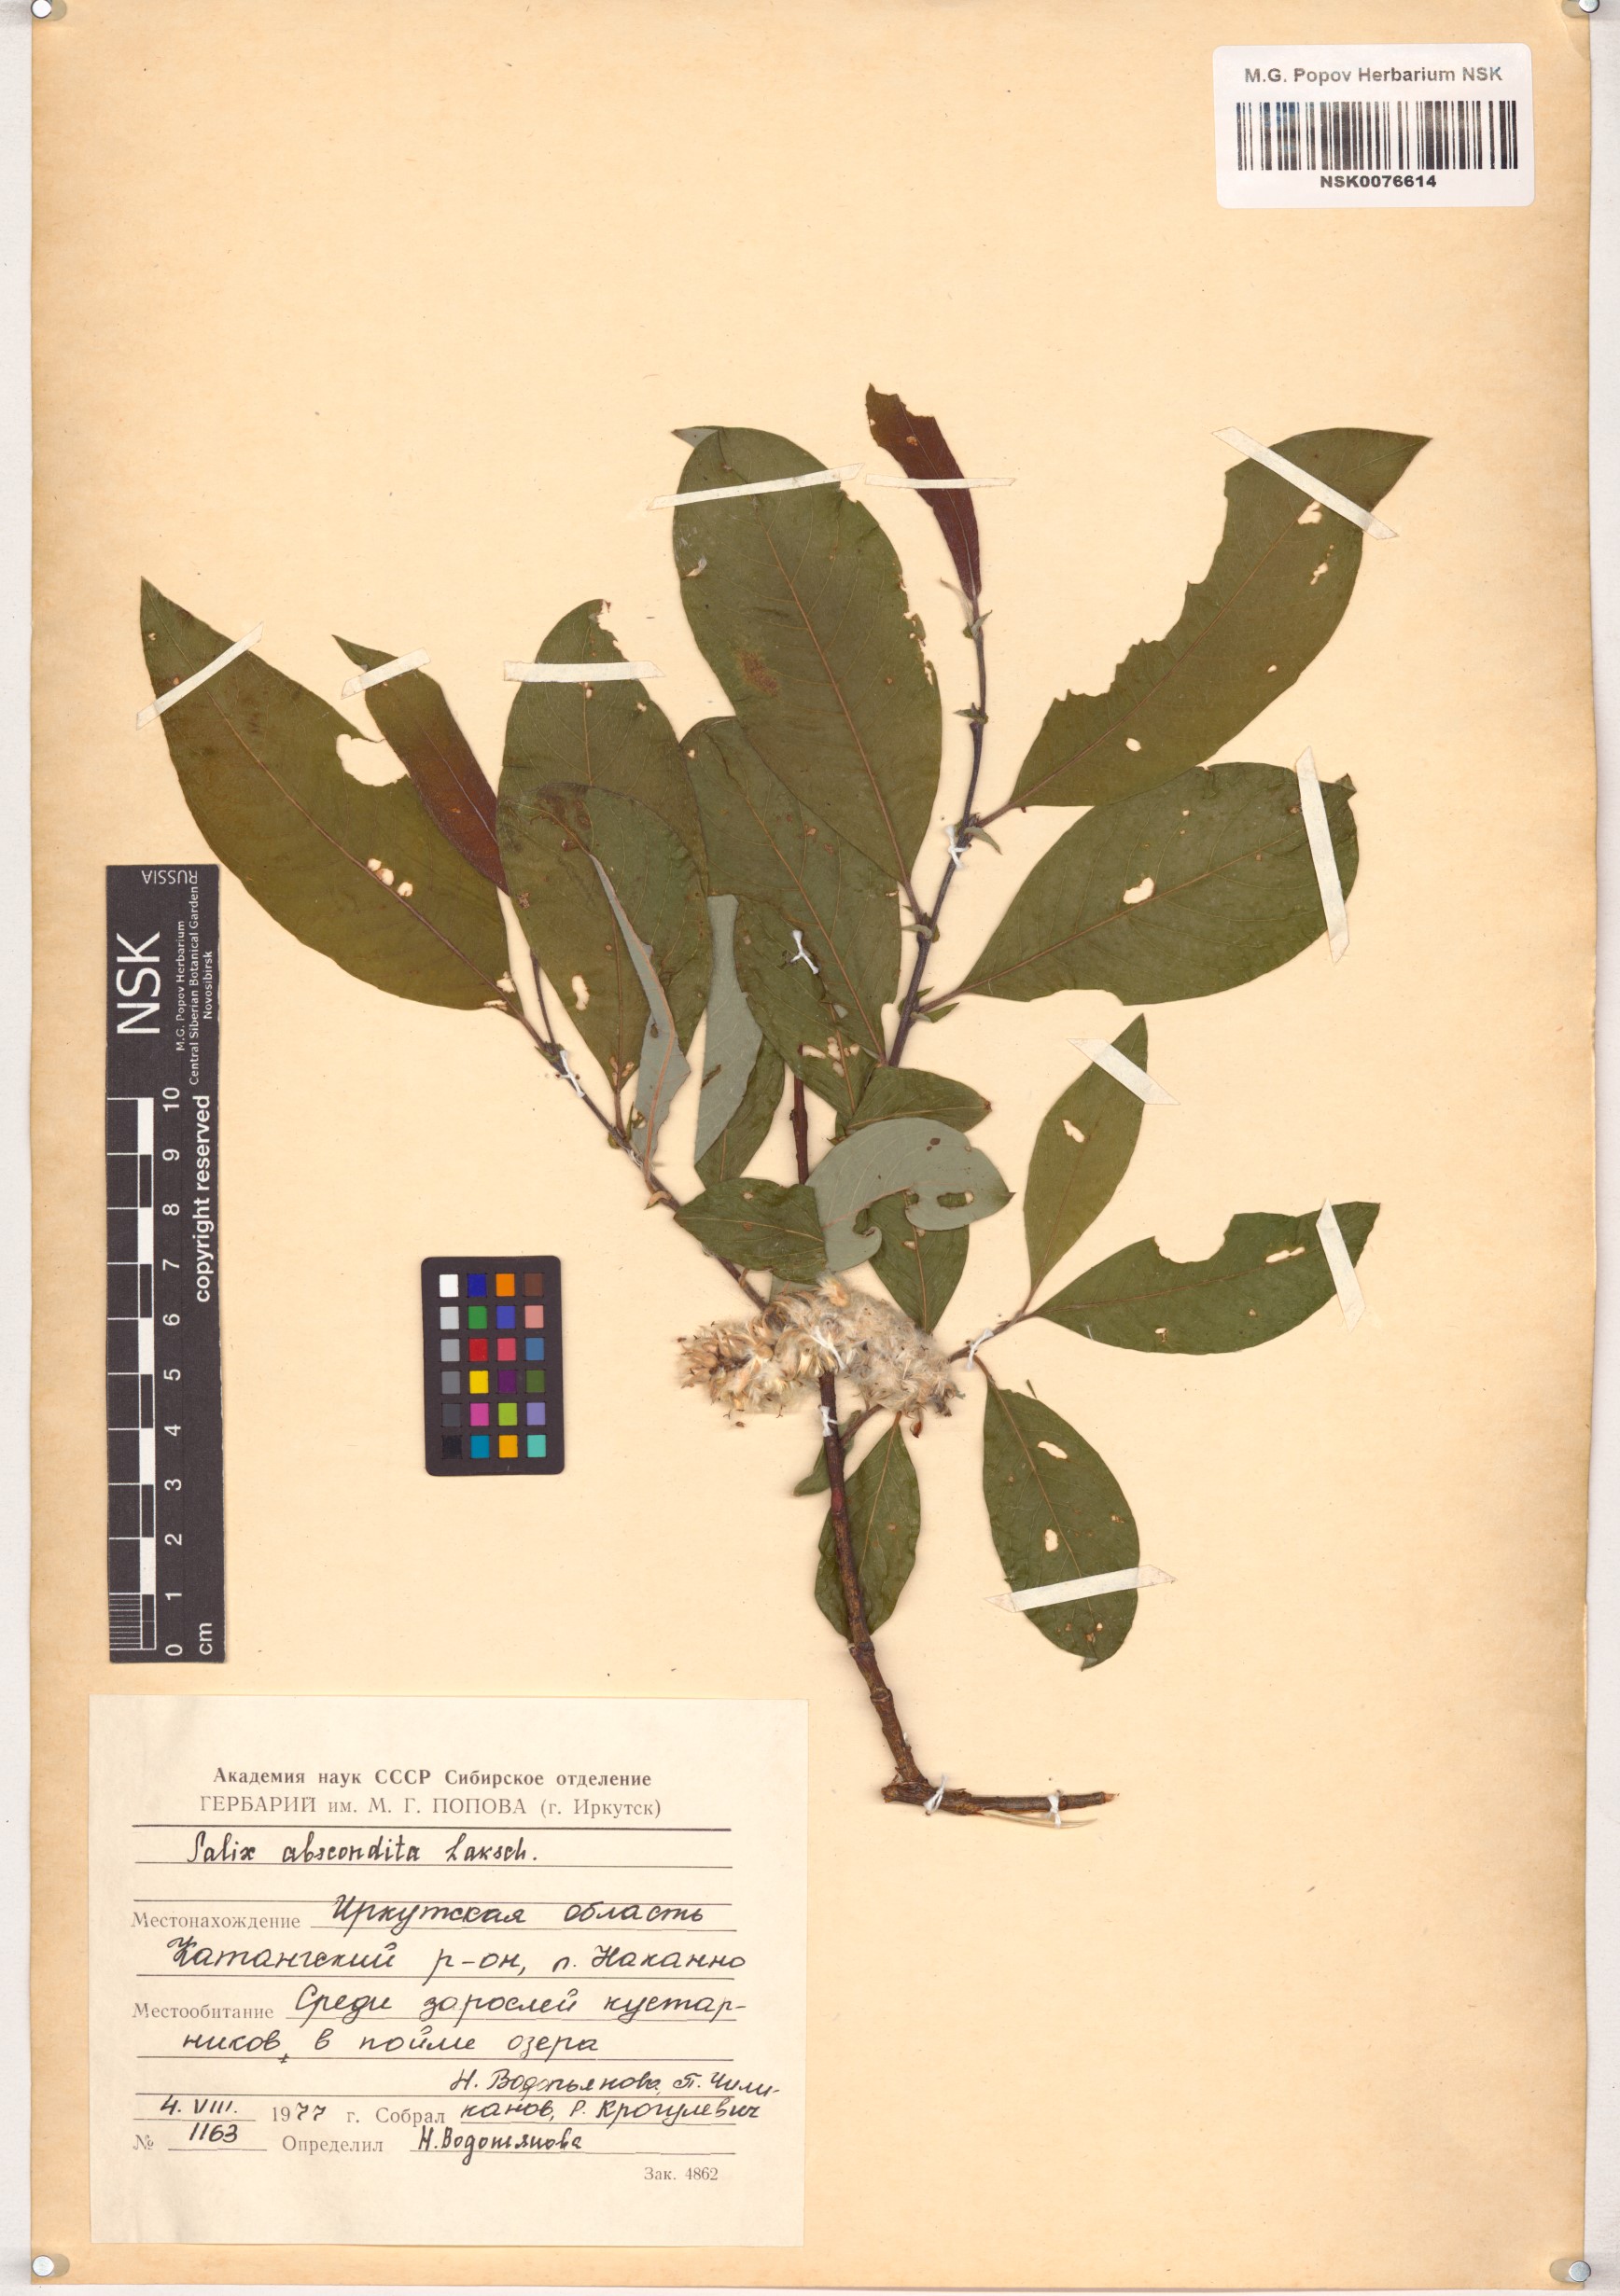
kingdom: Plantae
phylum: Tracheophyta
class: Magnoliopsida
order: Malpighiales
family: Salicaceae
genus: Salix
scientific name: Salix abscondita
